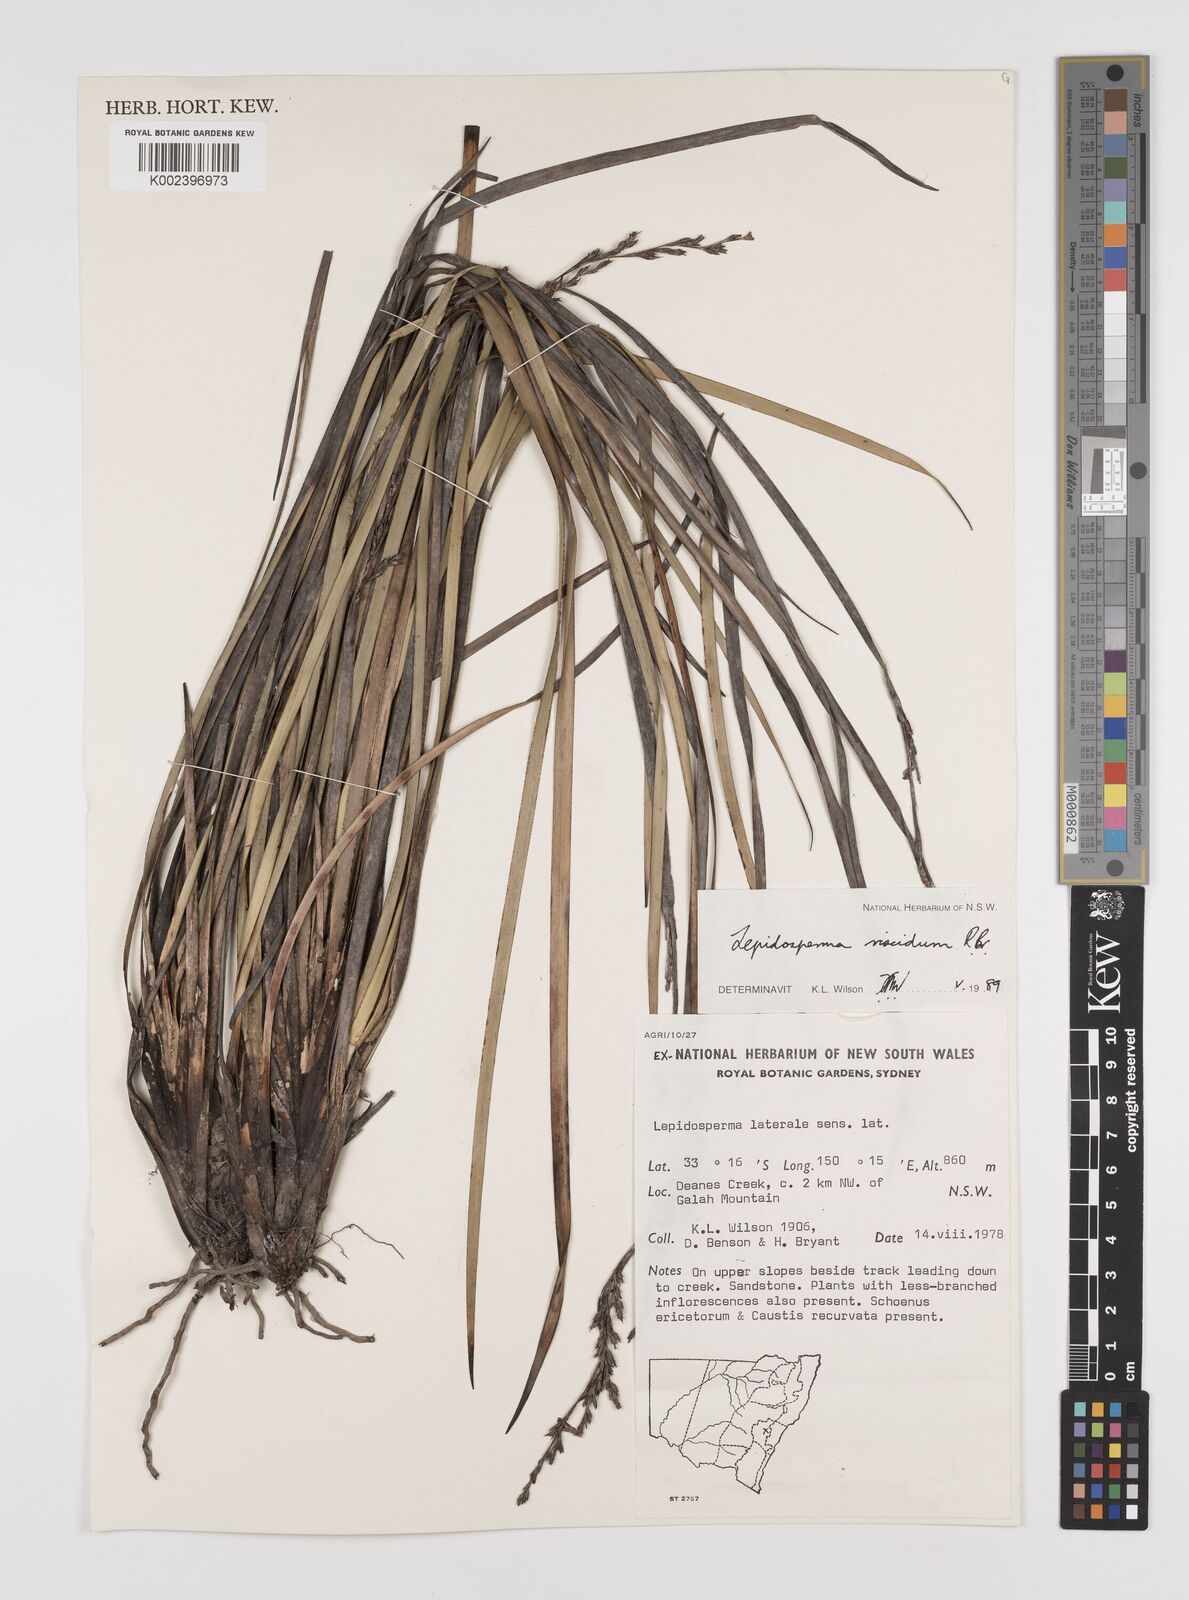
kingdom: Plantae
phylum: Tracheophyta
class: Liliopsida
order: Poales
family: Cyperaceae
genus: Lepidosperma
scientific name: Lepidosperma viscidum
